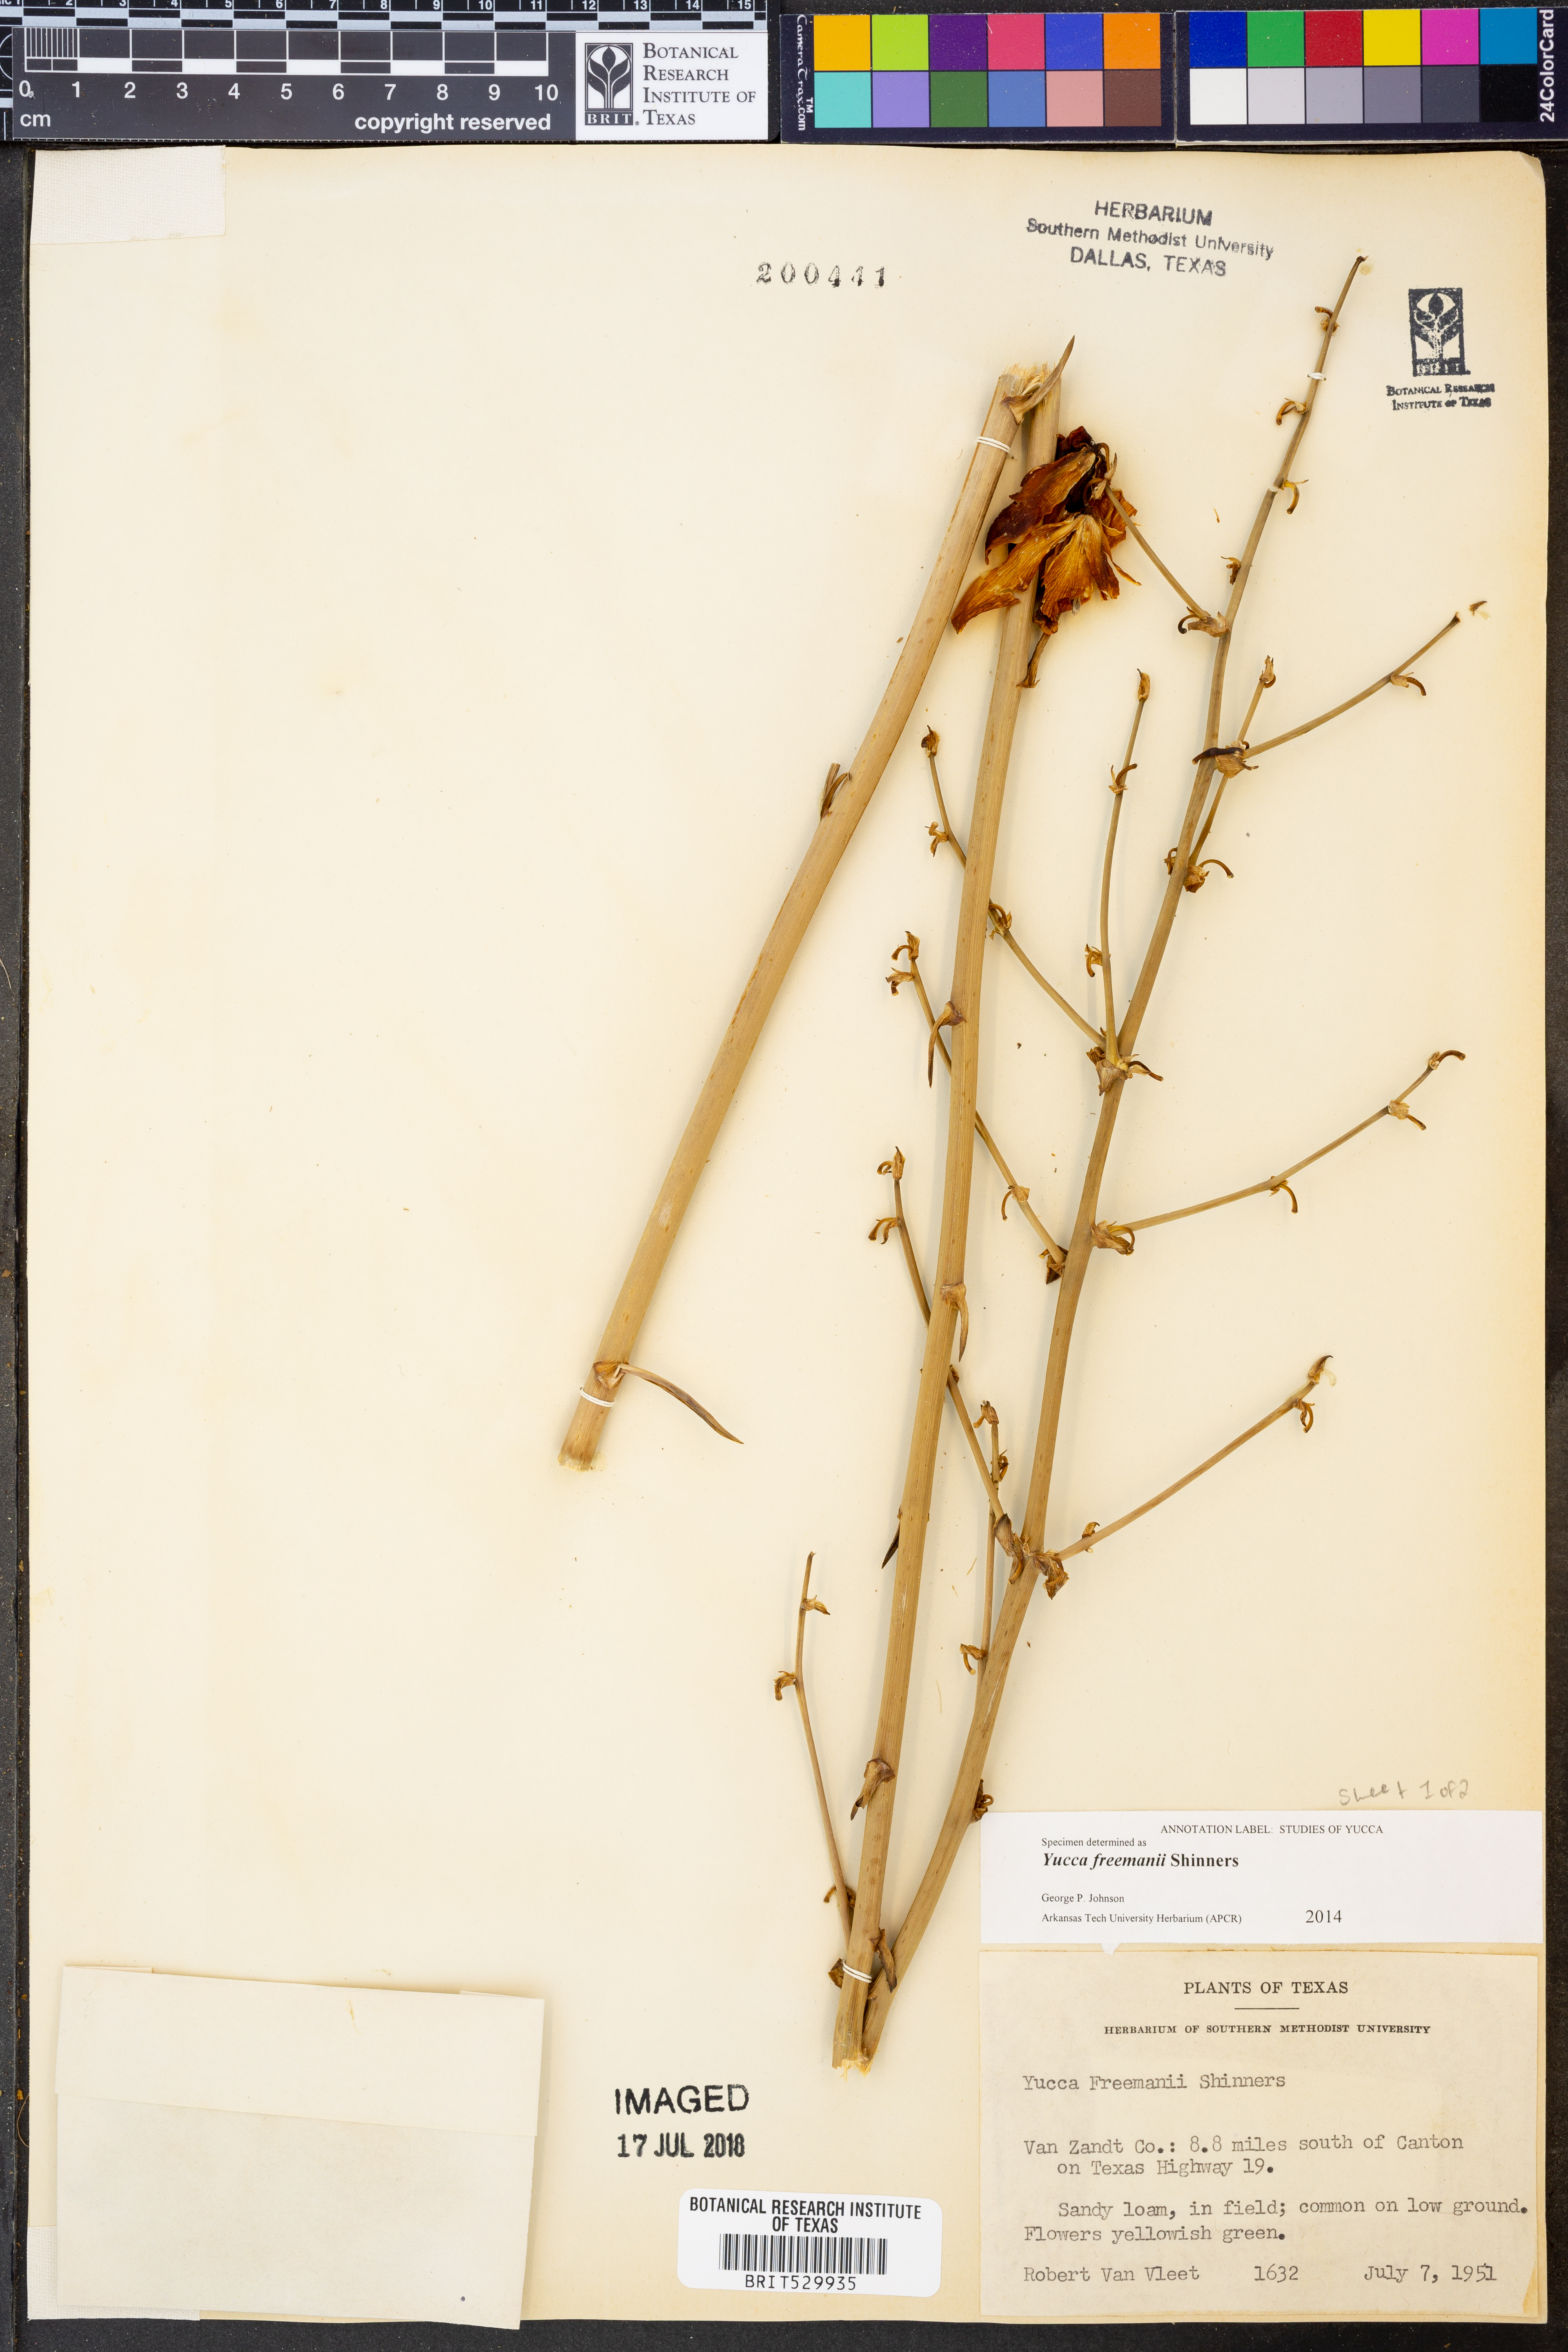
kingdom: Plantae
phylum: Tracheophyta
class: Liliopsida
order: Asparagales
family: Asparagaceae
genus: Yucca
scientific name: Yucca flaccida
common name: Adam's-needle
